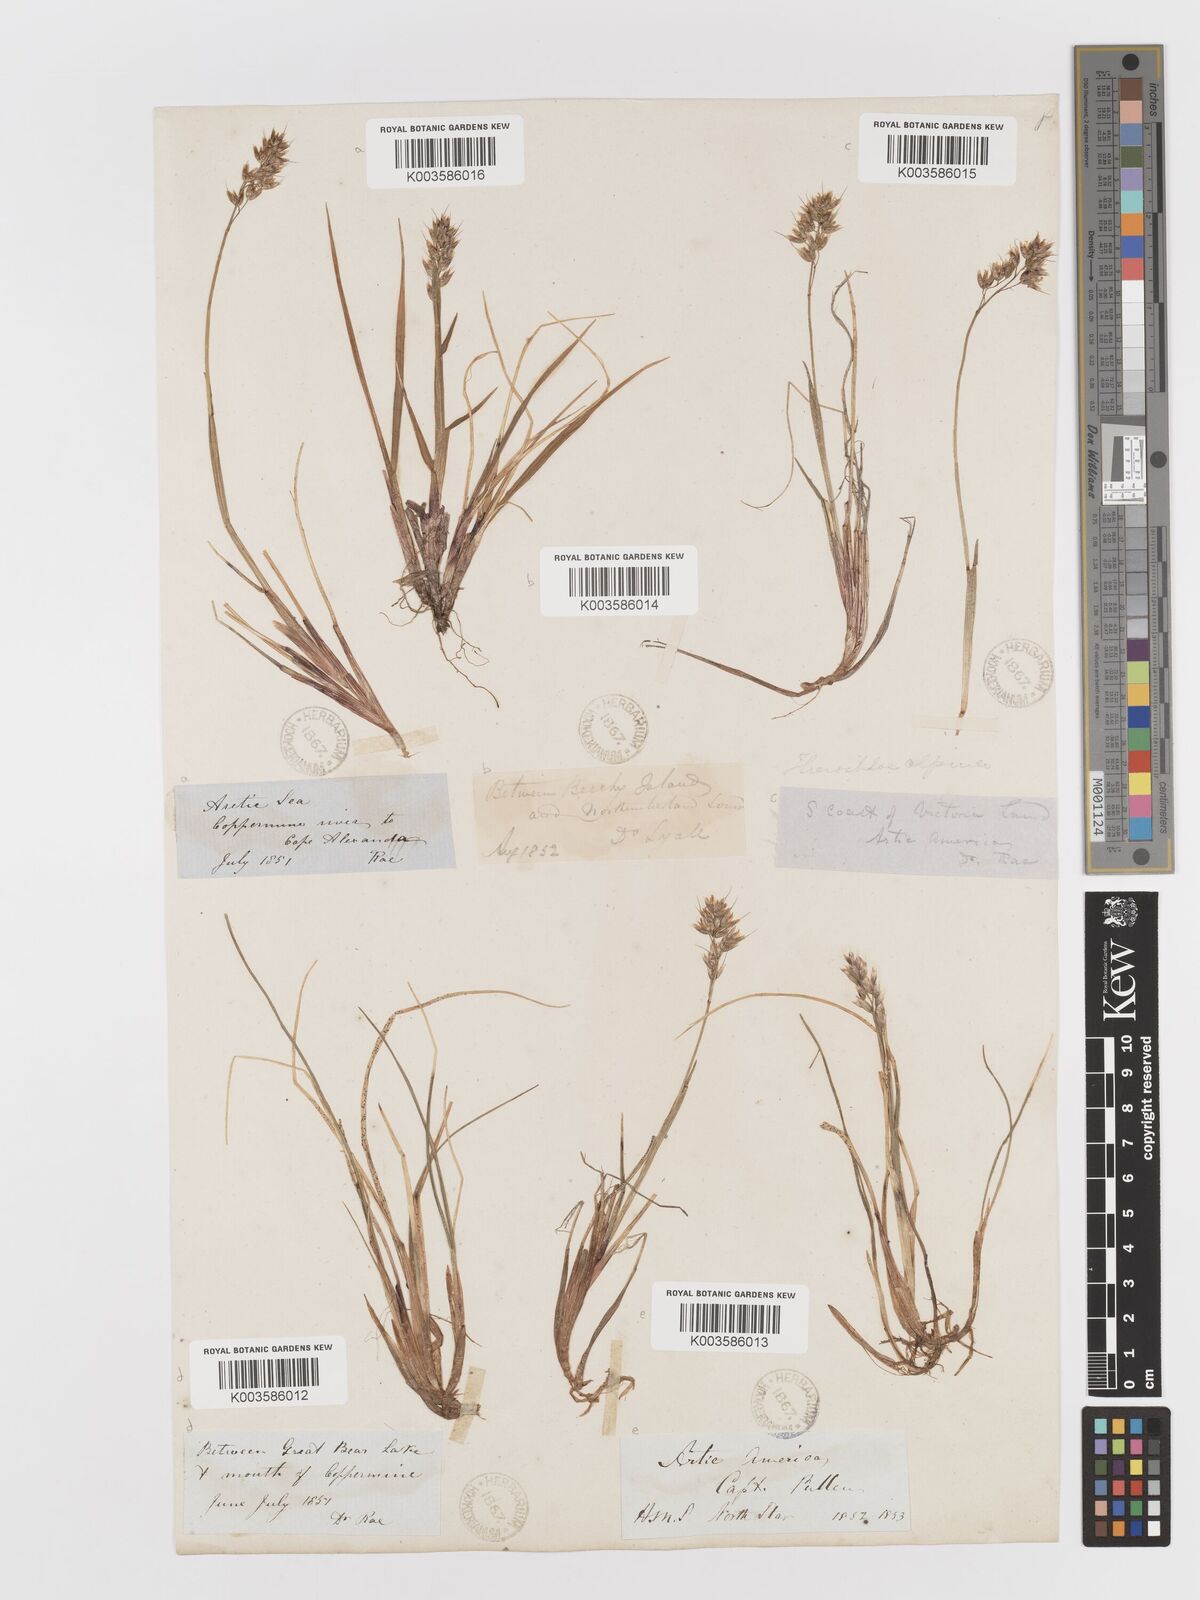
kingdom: Plantae
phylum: Tracheophyta
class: Liliopsida
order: Poales
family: Poaceae
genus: Anthoxanthum
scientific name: Anthoxanthum monticola
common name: Alpine sweetgrass
